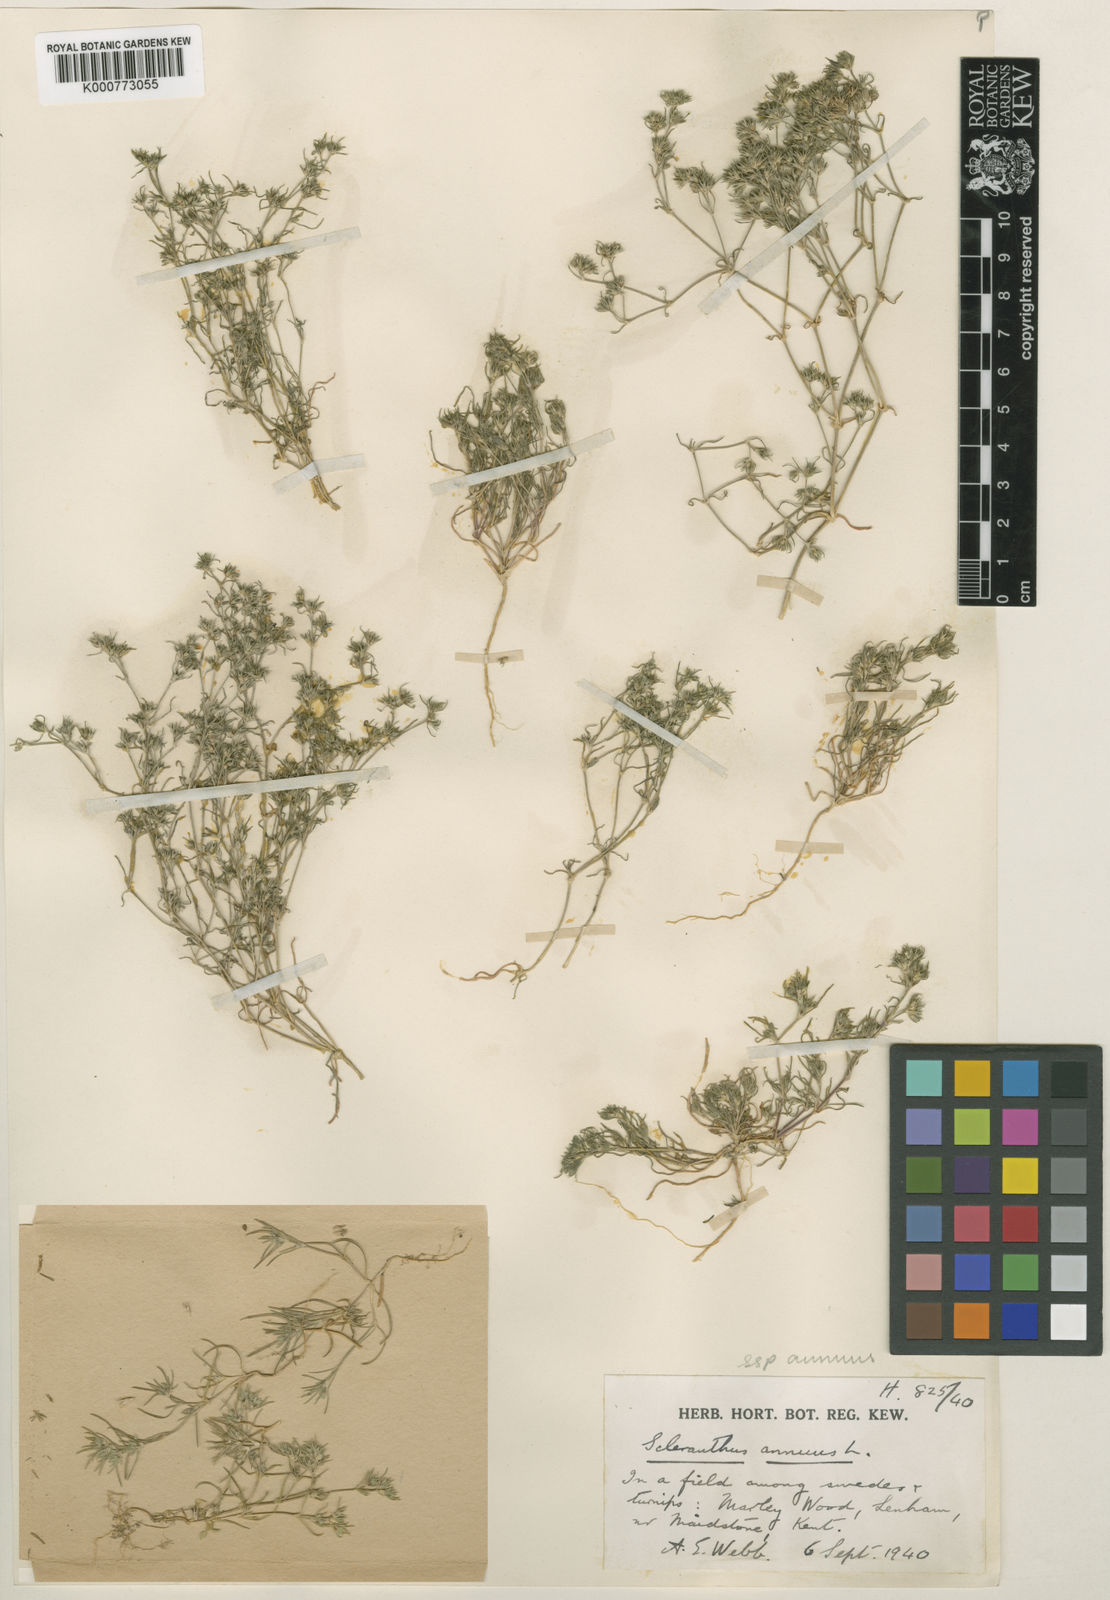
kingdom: Plantae
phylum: Tracheophyta
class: Magnoliopsida
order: Caryophyllales
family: Caryophyllaceae
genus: Scleranthus
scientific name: Scleranthus annuus
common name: Annual knawel
